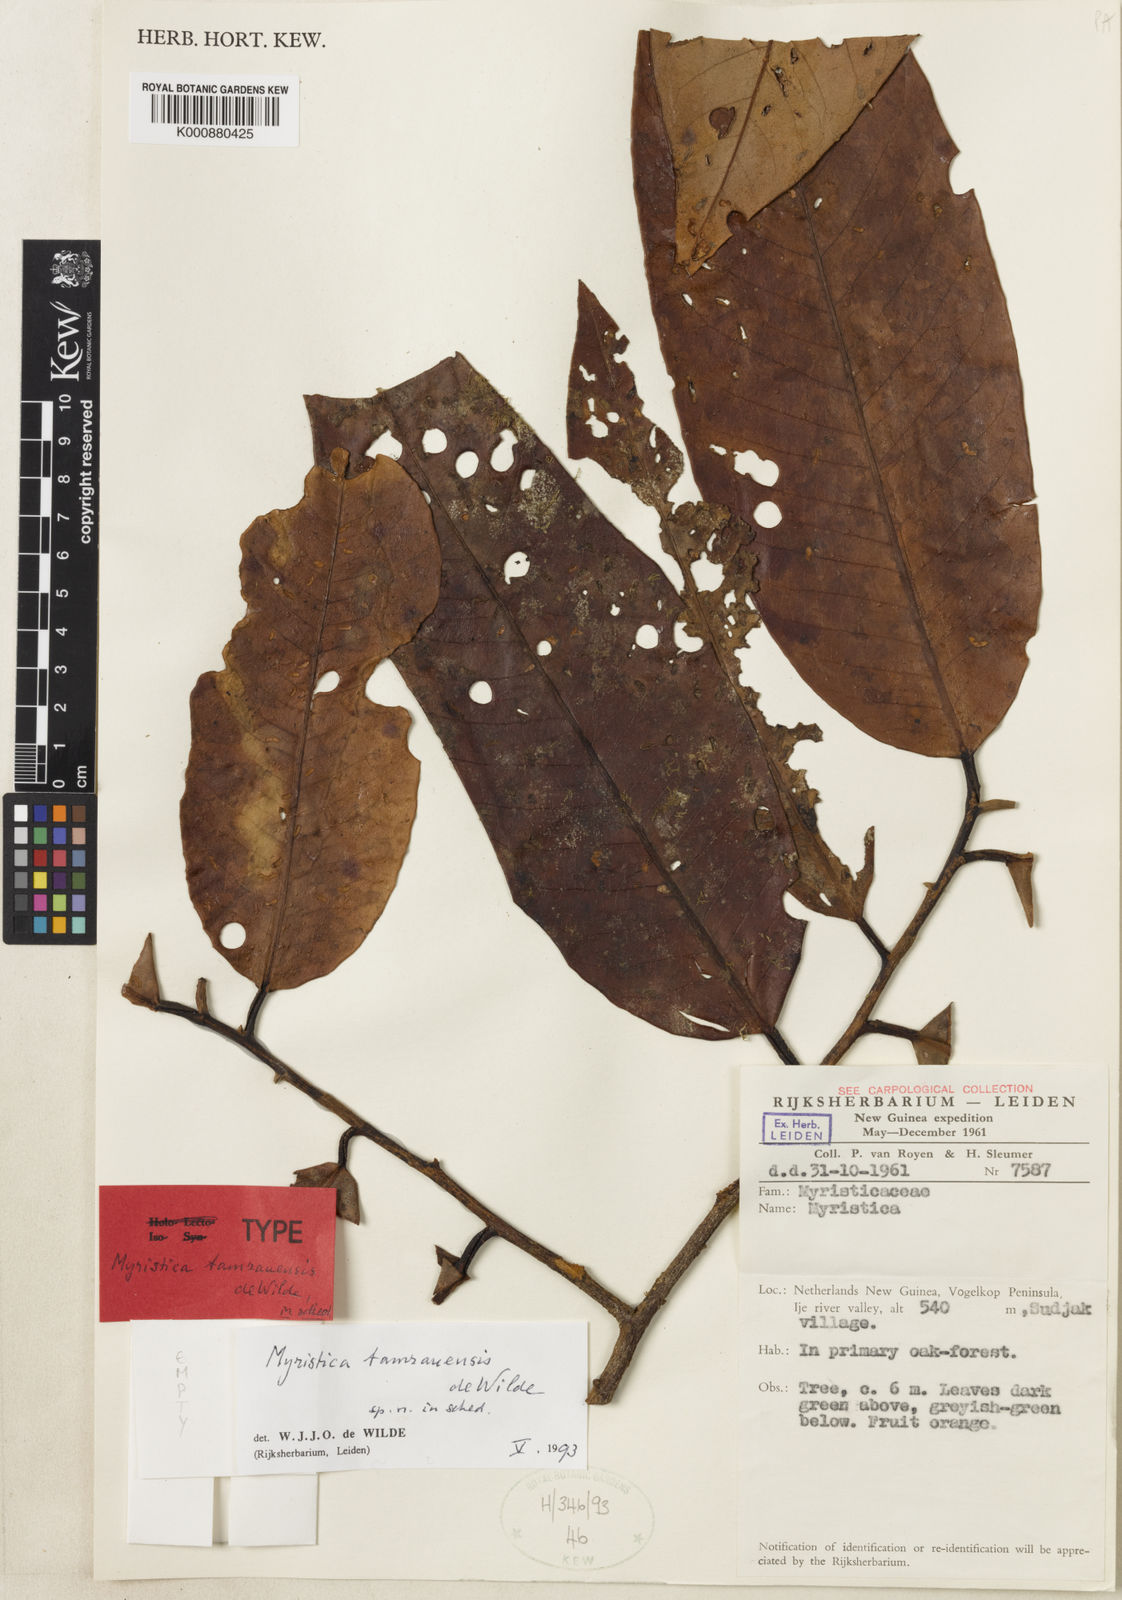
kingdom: Plantae
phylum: Tracheophyta
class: Magnoliopsida
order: Magnoliales
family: Myristicaceae
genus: Myristica
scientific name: Myristica tamrauensis
